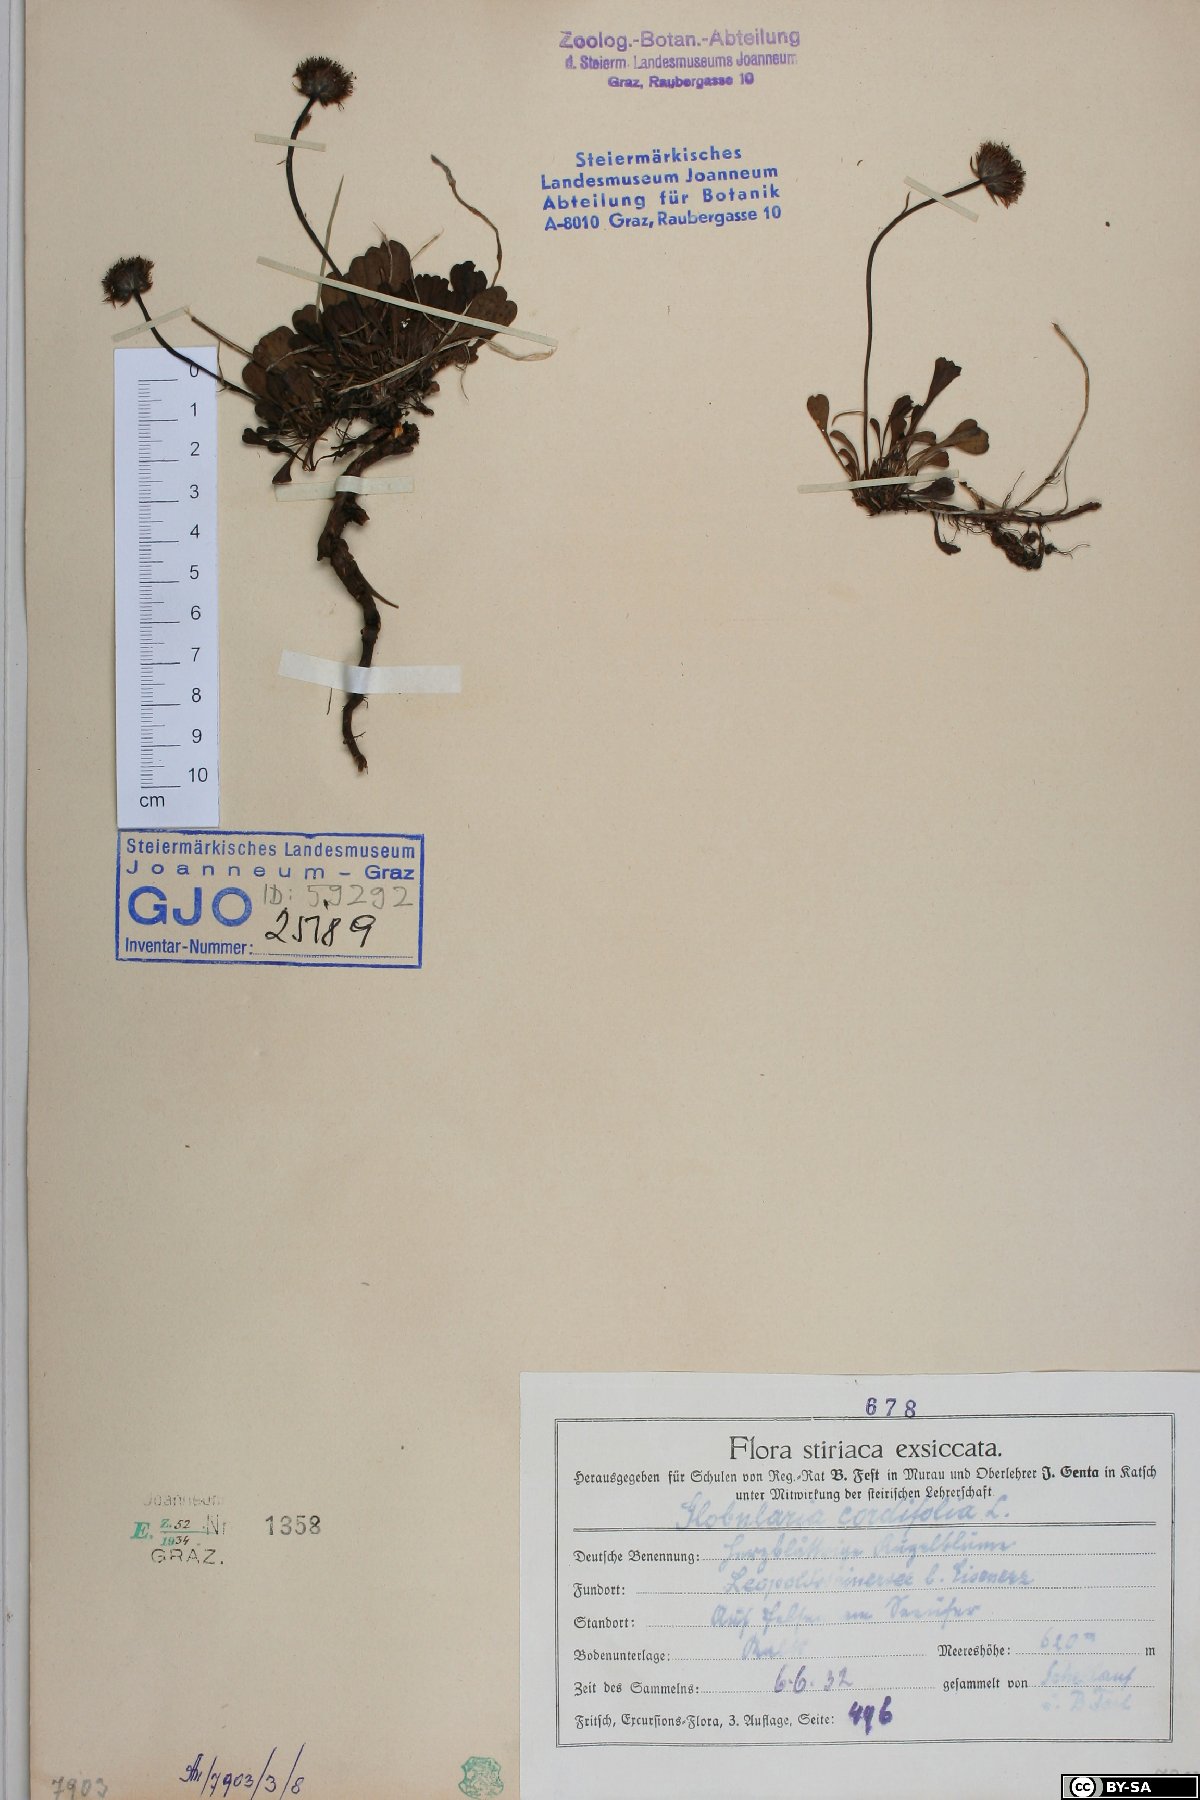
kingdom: Plantae
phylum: Tracheophyta
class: Magnoliopsida
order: Lamiales
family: Plantaginaceae
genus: Globularia
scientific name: Globularia cordifolia
